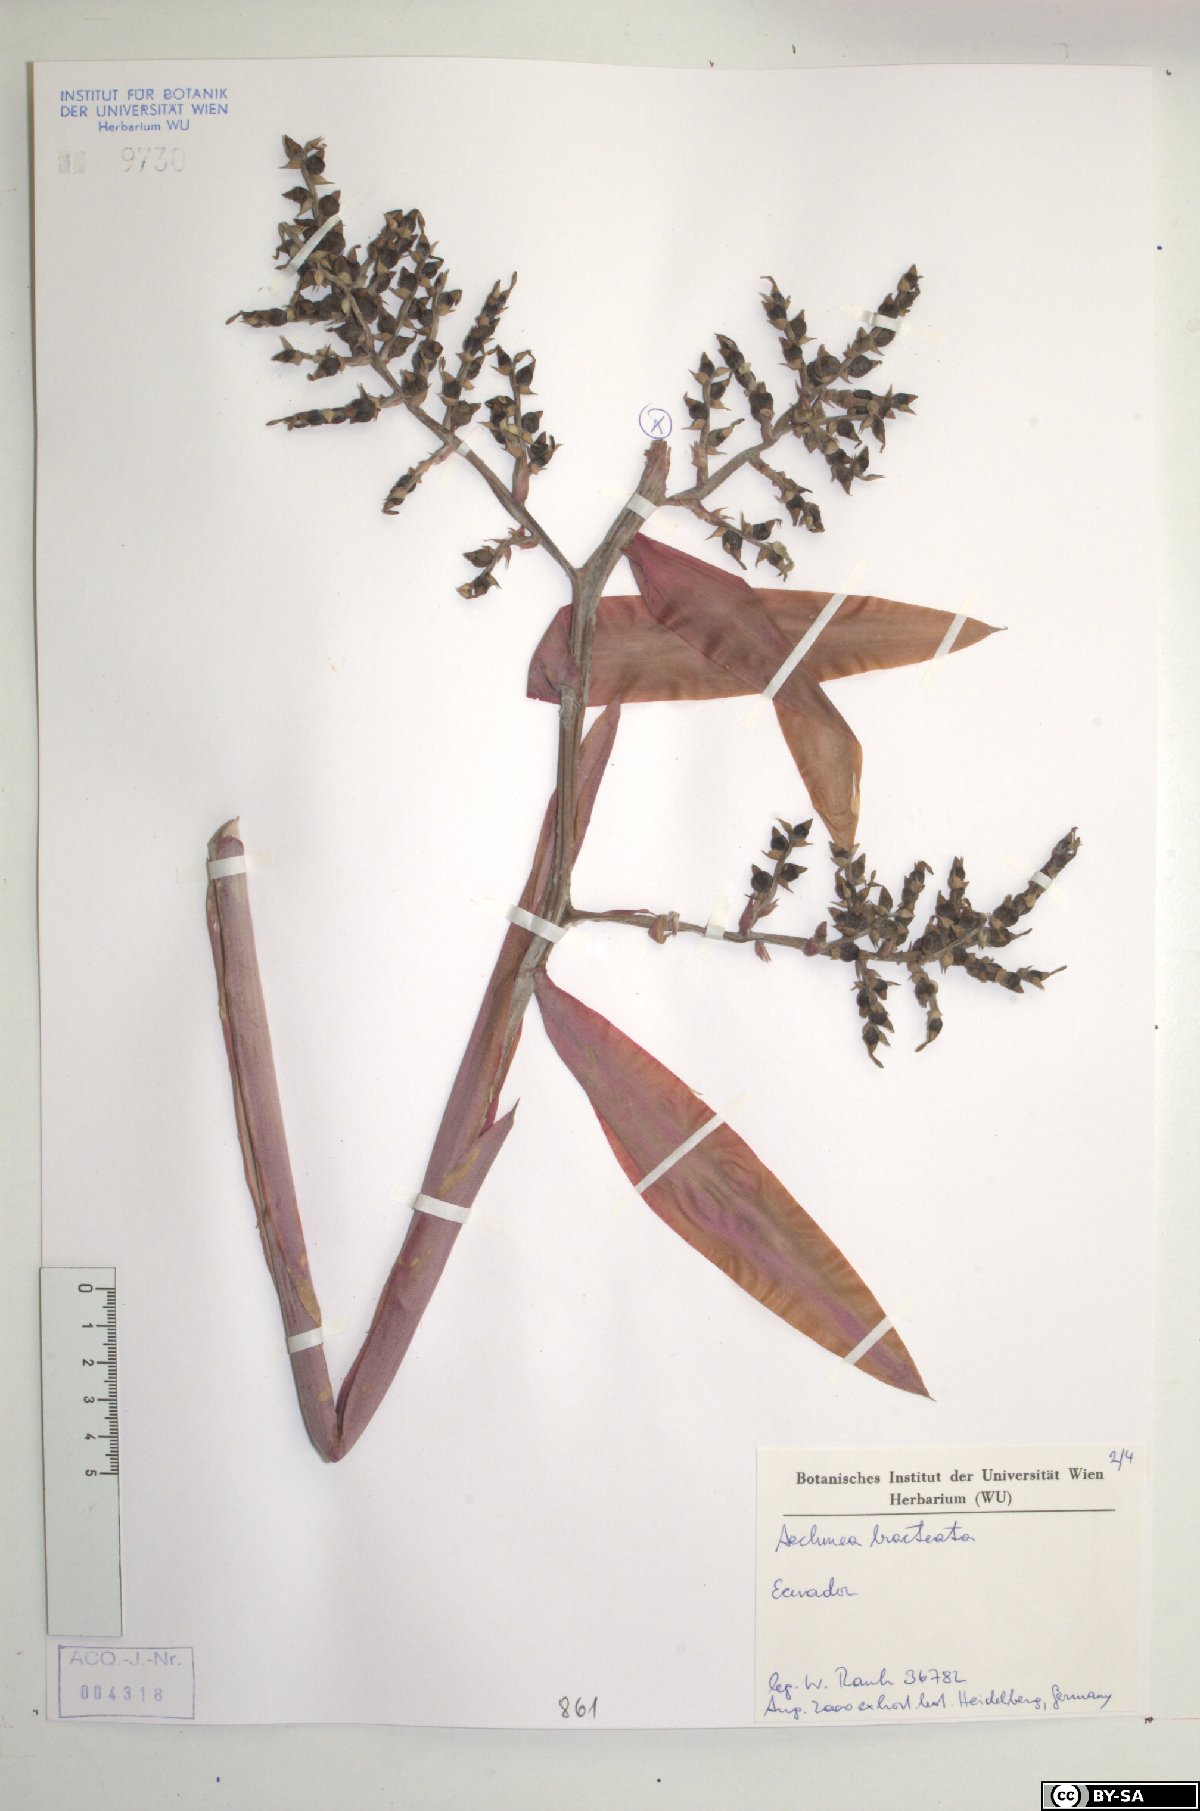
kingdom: Plantae
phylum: Tracheophyta
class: Liliopsida
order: Poales
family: Bromeliaceae
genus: Aechmea
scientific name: Aechmea bracteata
